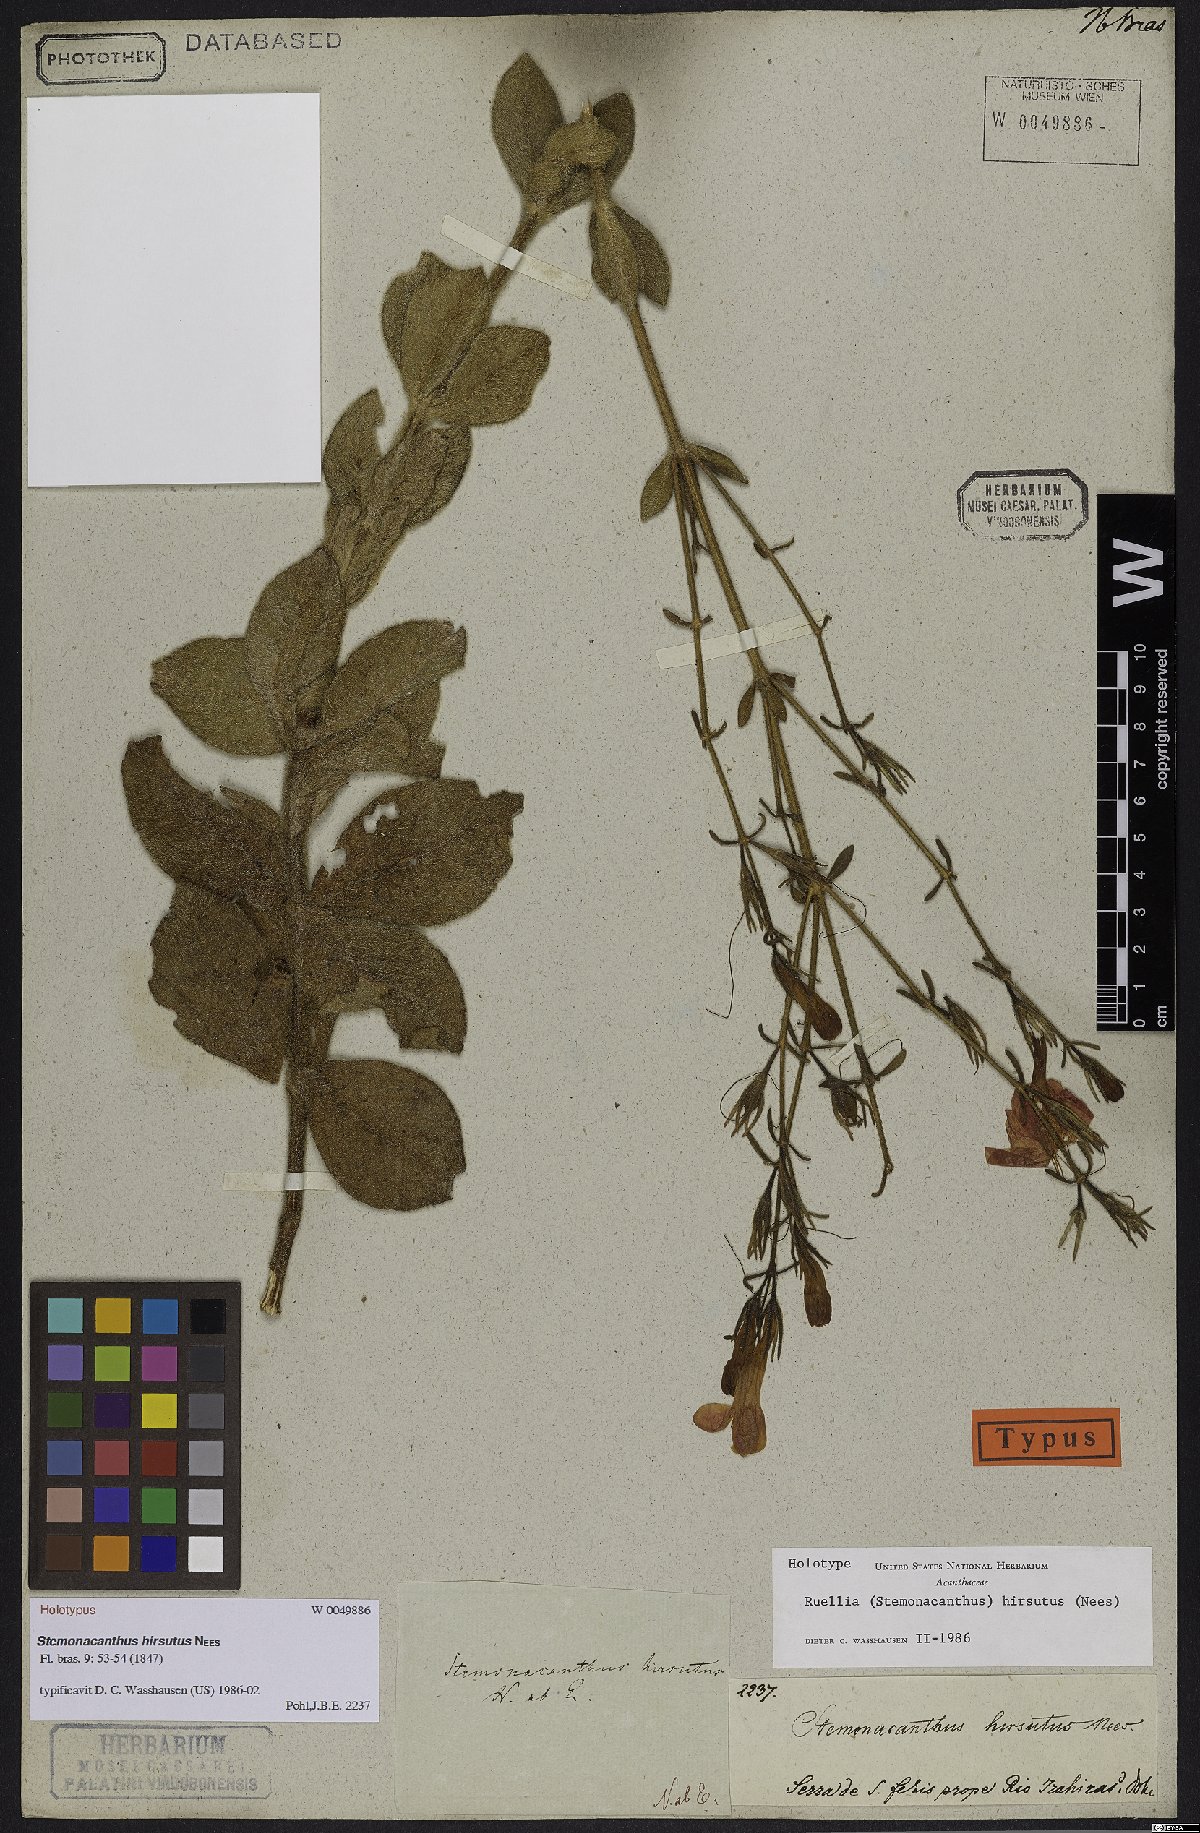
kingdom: Plantae
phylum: Tracheophyta
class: Magnoliopsida
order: Lamiales
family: Acanthaceae
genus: Ruellia
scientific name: Ruellia Stemonacanthus hirsutus
